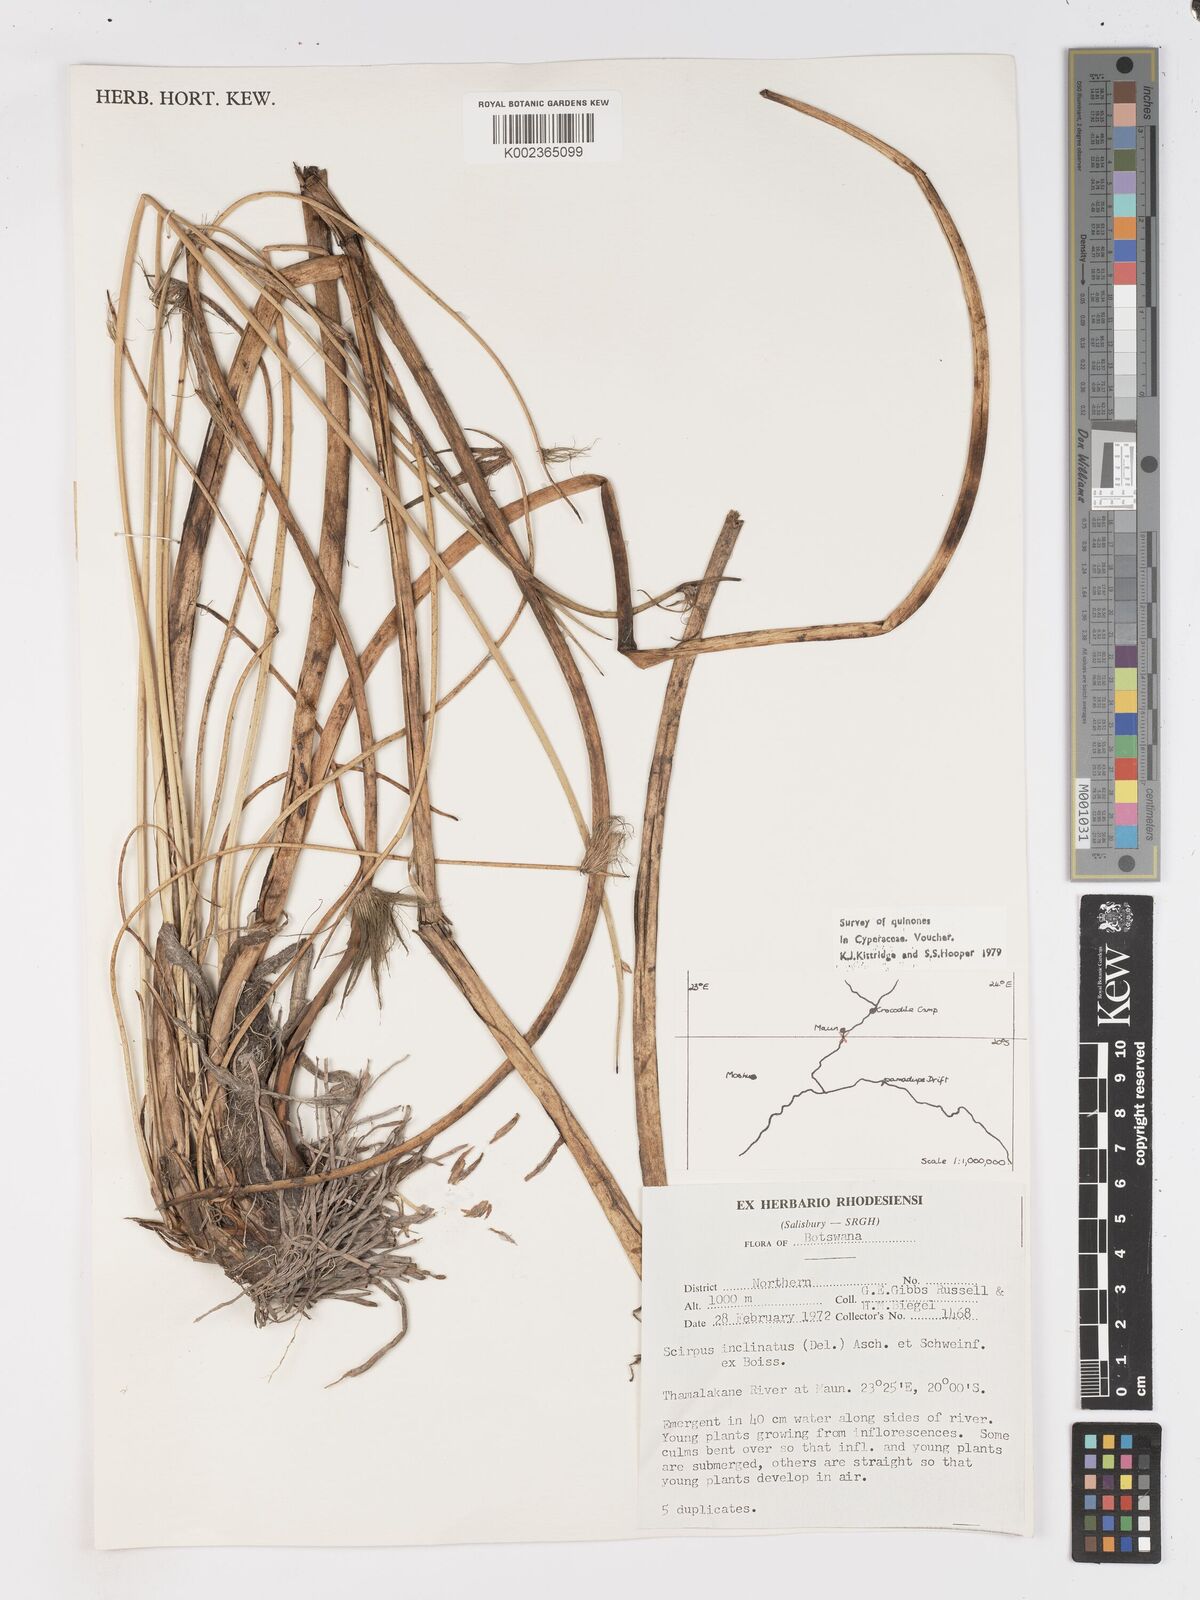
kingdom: Plantae
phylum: Tracheophyta
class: Liliopsida
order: Poales
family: Cyperaceae
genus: Schoenoplectiella
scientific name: Schoenoplectiella corymbosa
